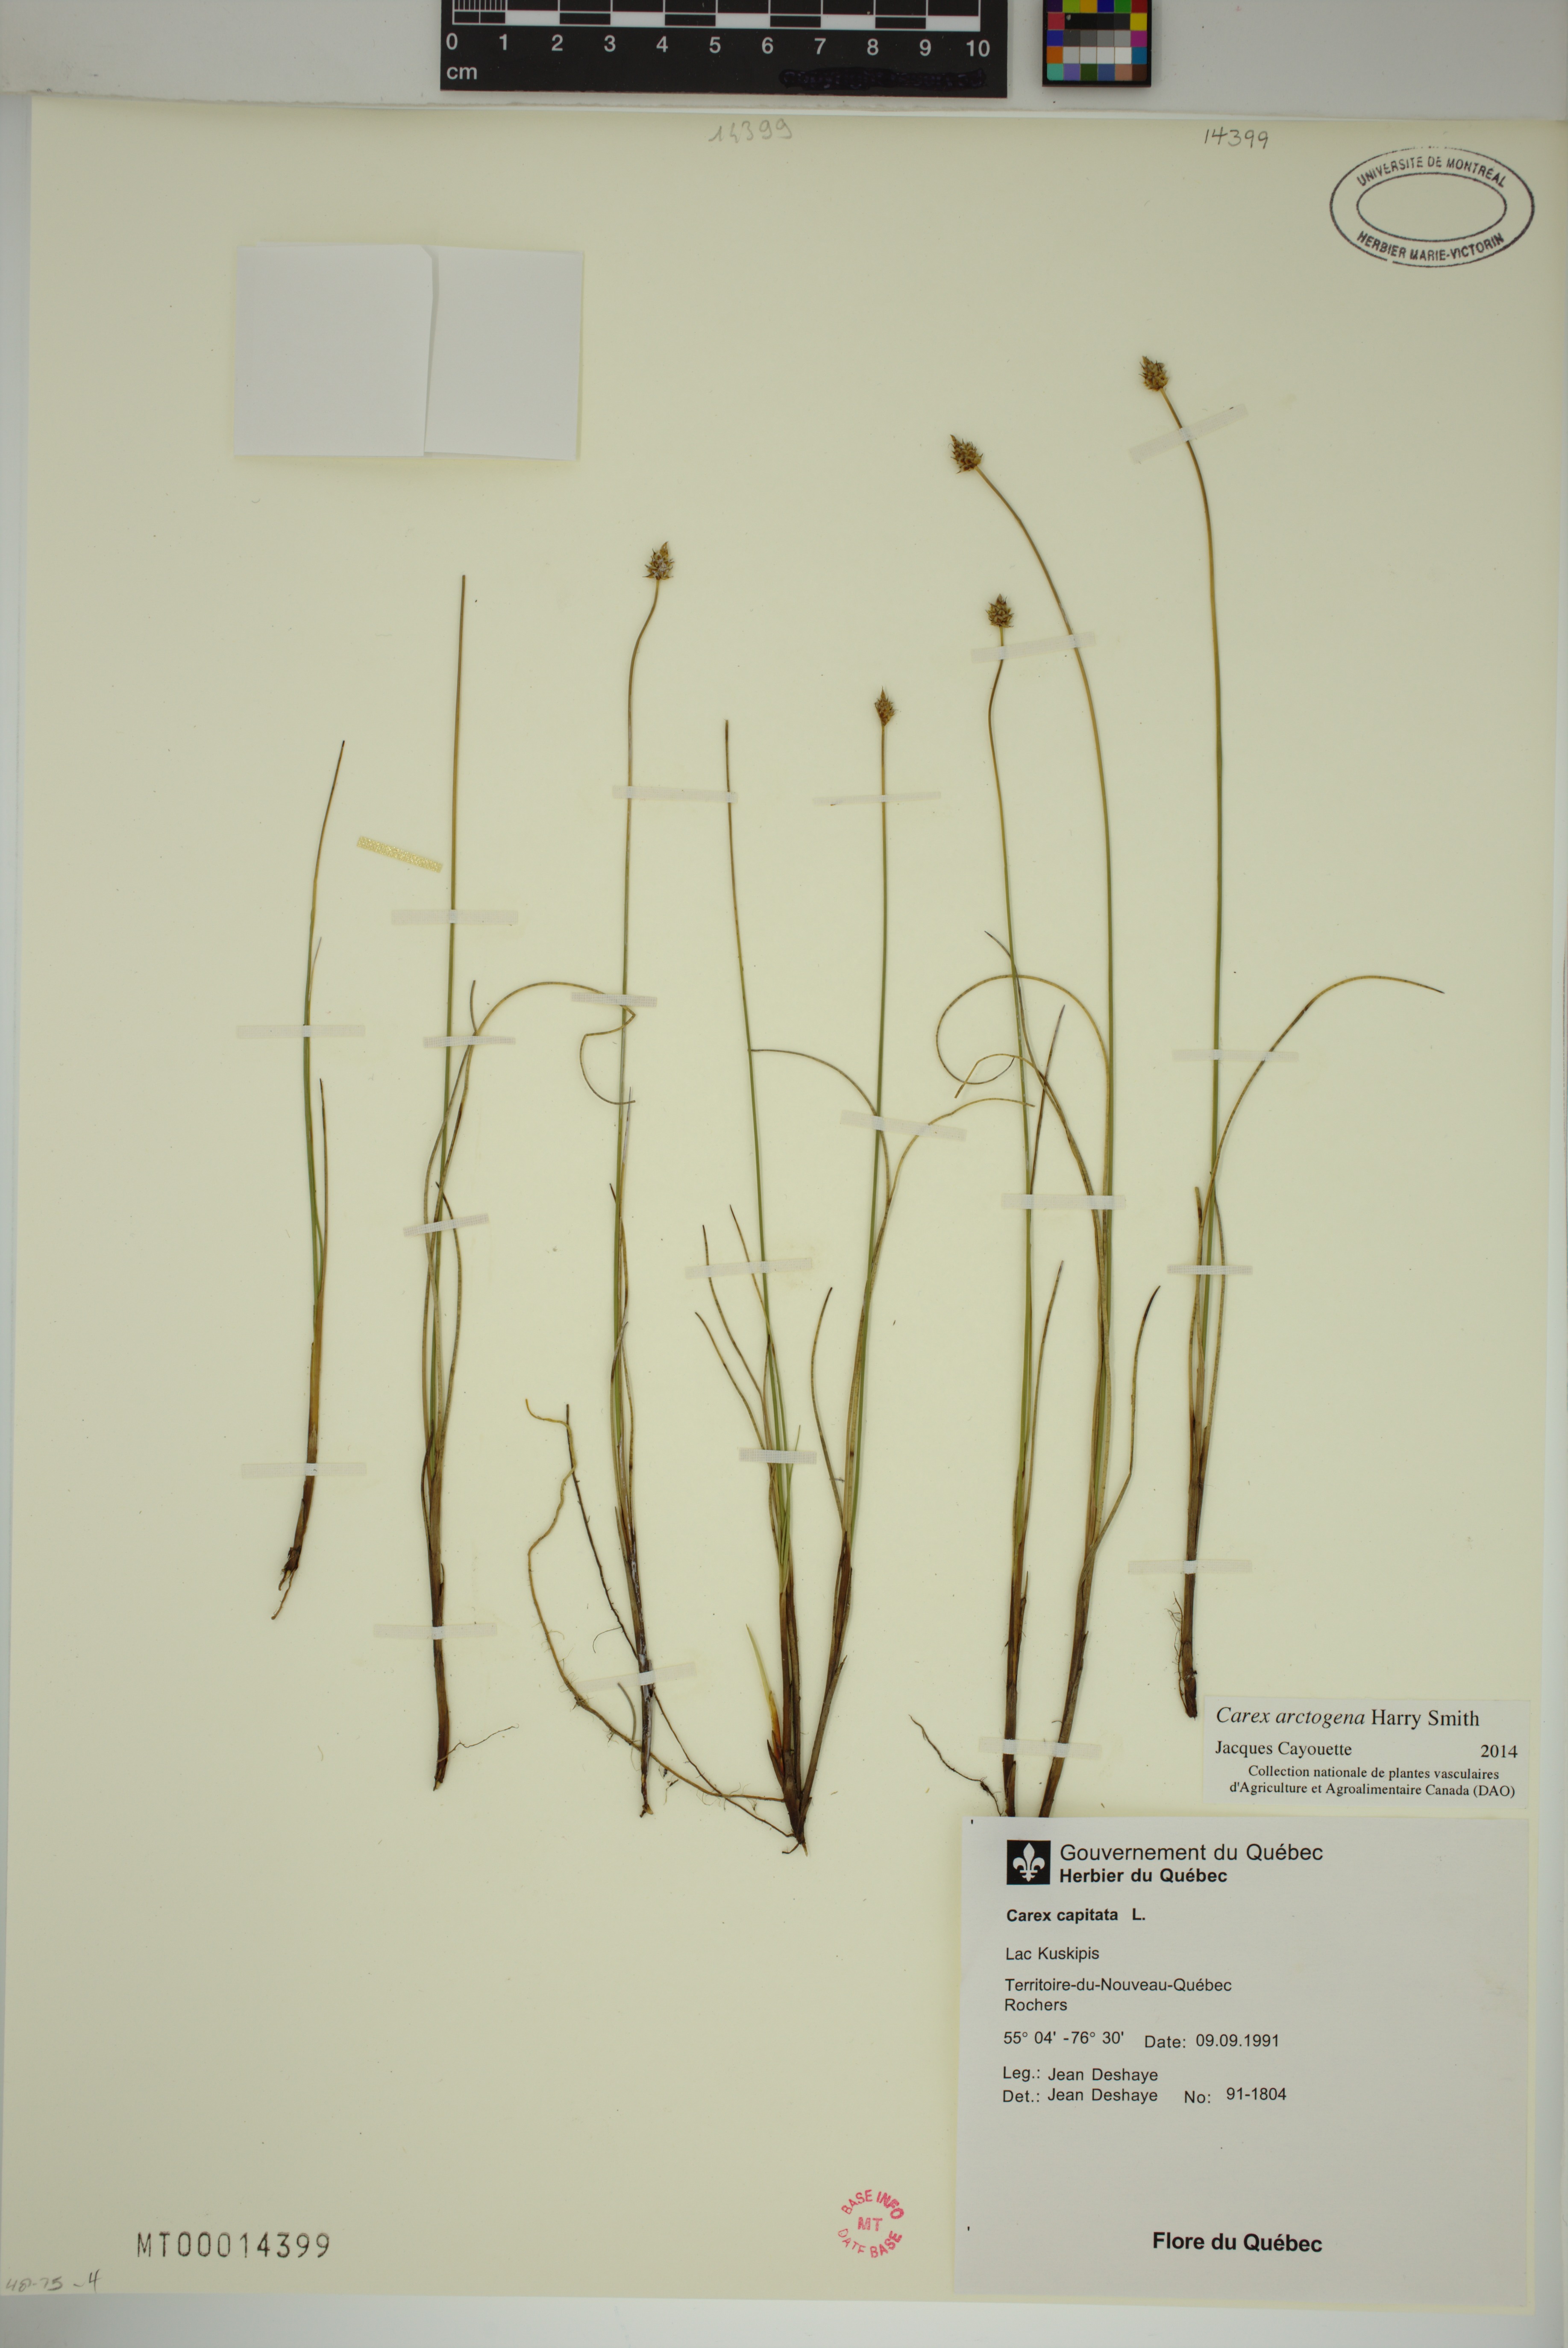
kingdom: Plantae
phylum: Tracheophyta
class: Liliopsida
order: Poales
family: Cyperaceae
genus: Carex
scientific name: Carex arctogena
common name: Black sedge
